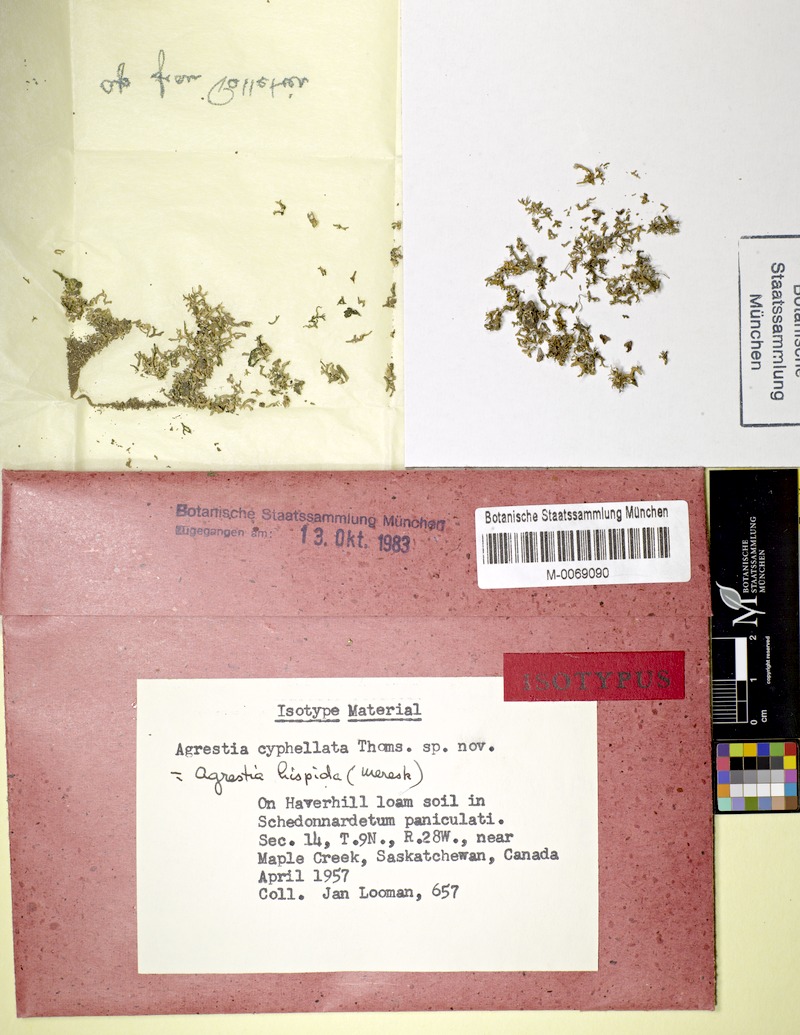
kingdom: Fungi
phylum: Ascomycota
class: Lecanoromycetes
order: Pertusariales
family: Megasporaceae
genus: Circinaria
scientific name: Circinaria hispida
